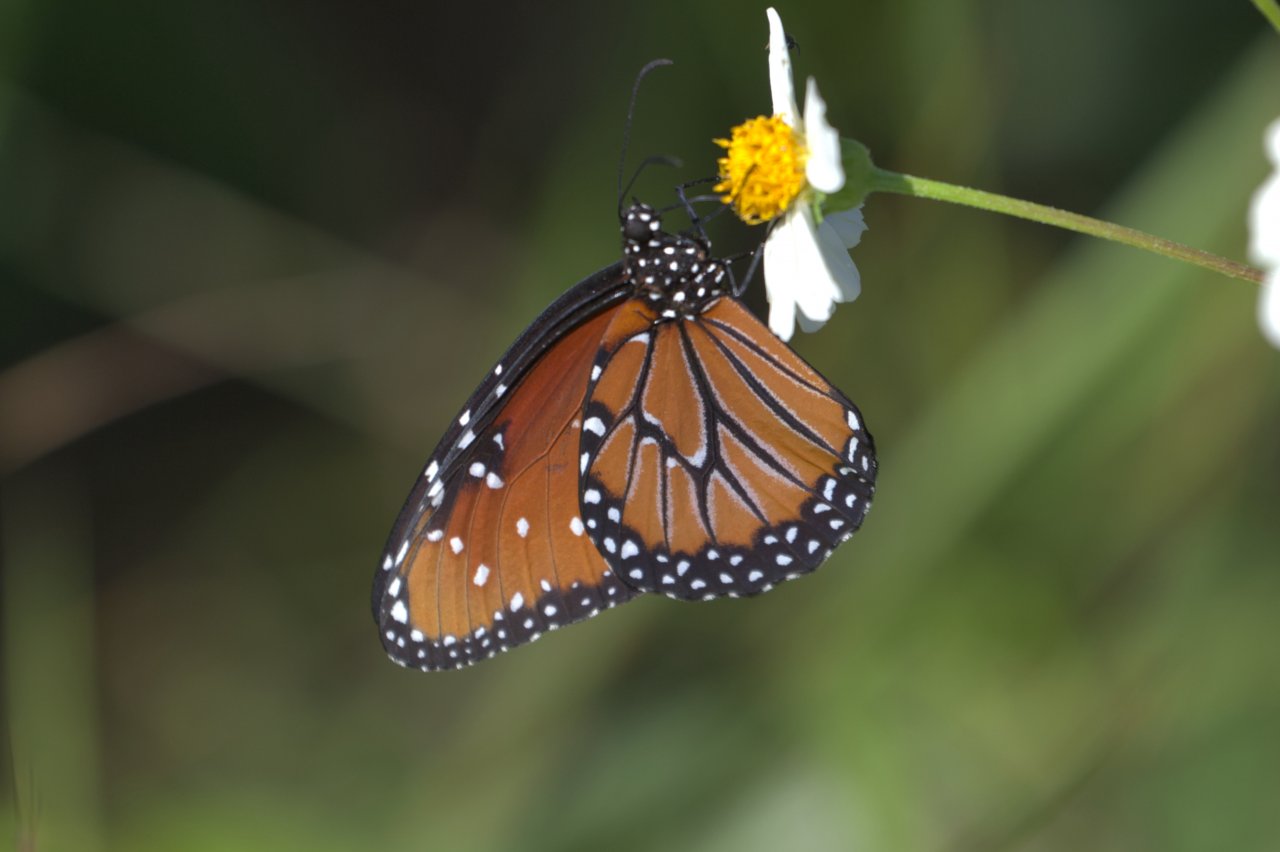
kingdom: Animalia
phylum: Arthropoda
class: Insecta
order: Lepidoptera
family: Nymphalidae
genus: Danaus
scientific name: Danaus gilippus
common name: Queen
